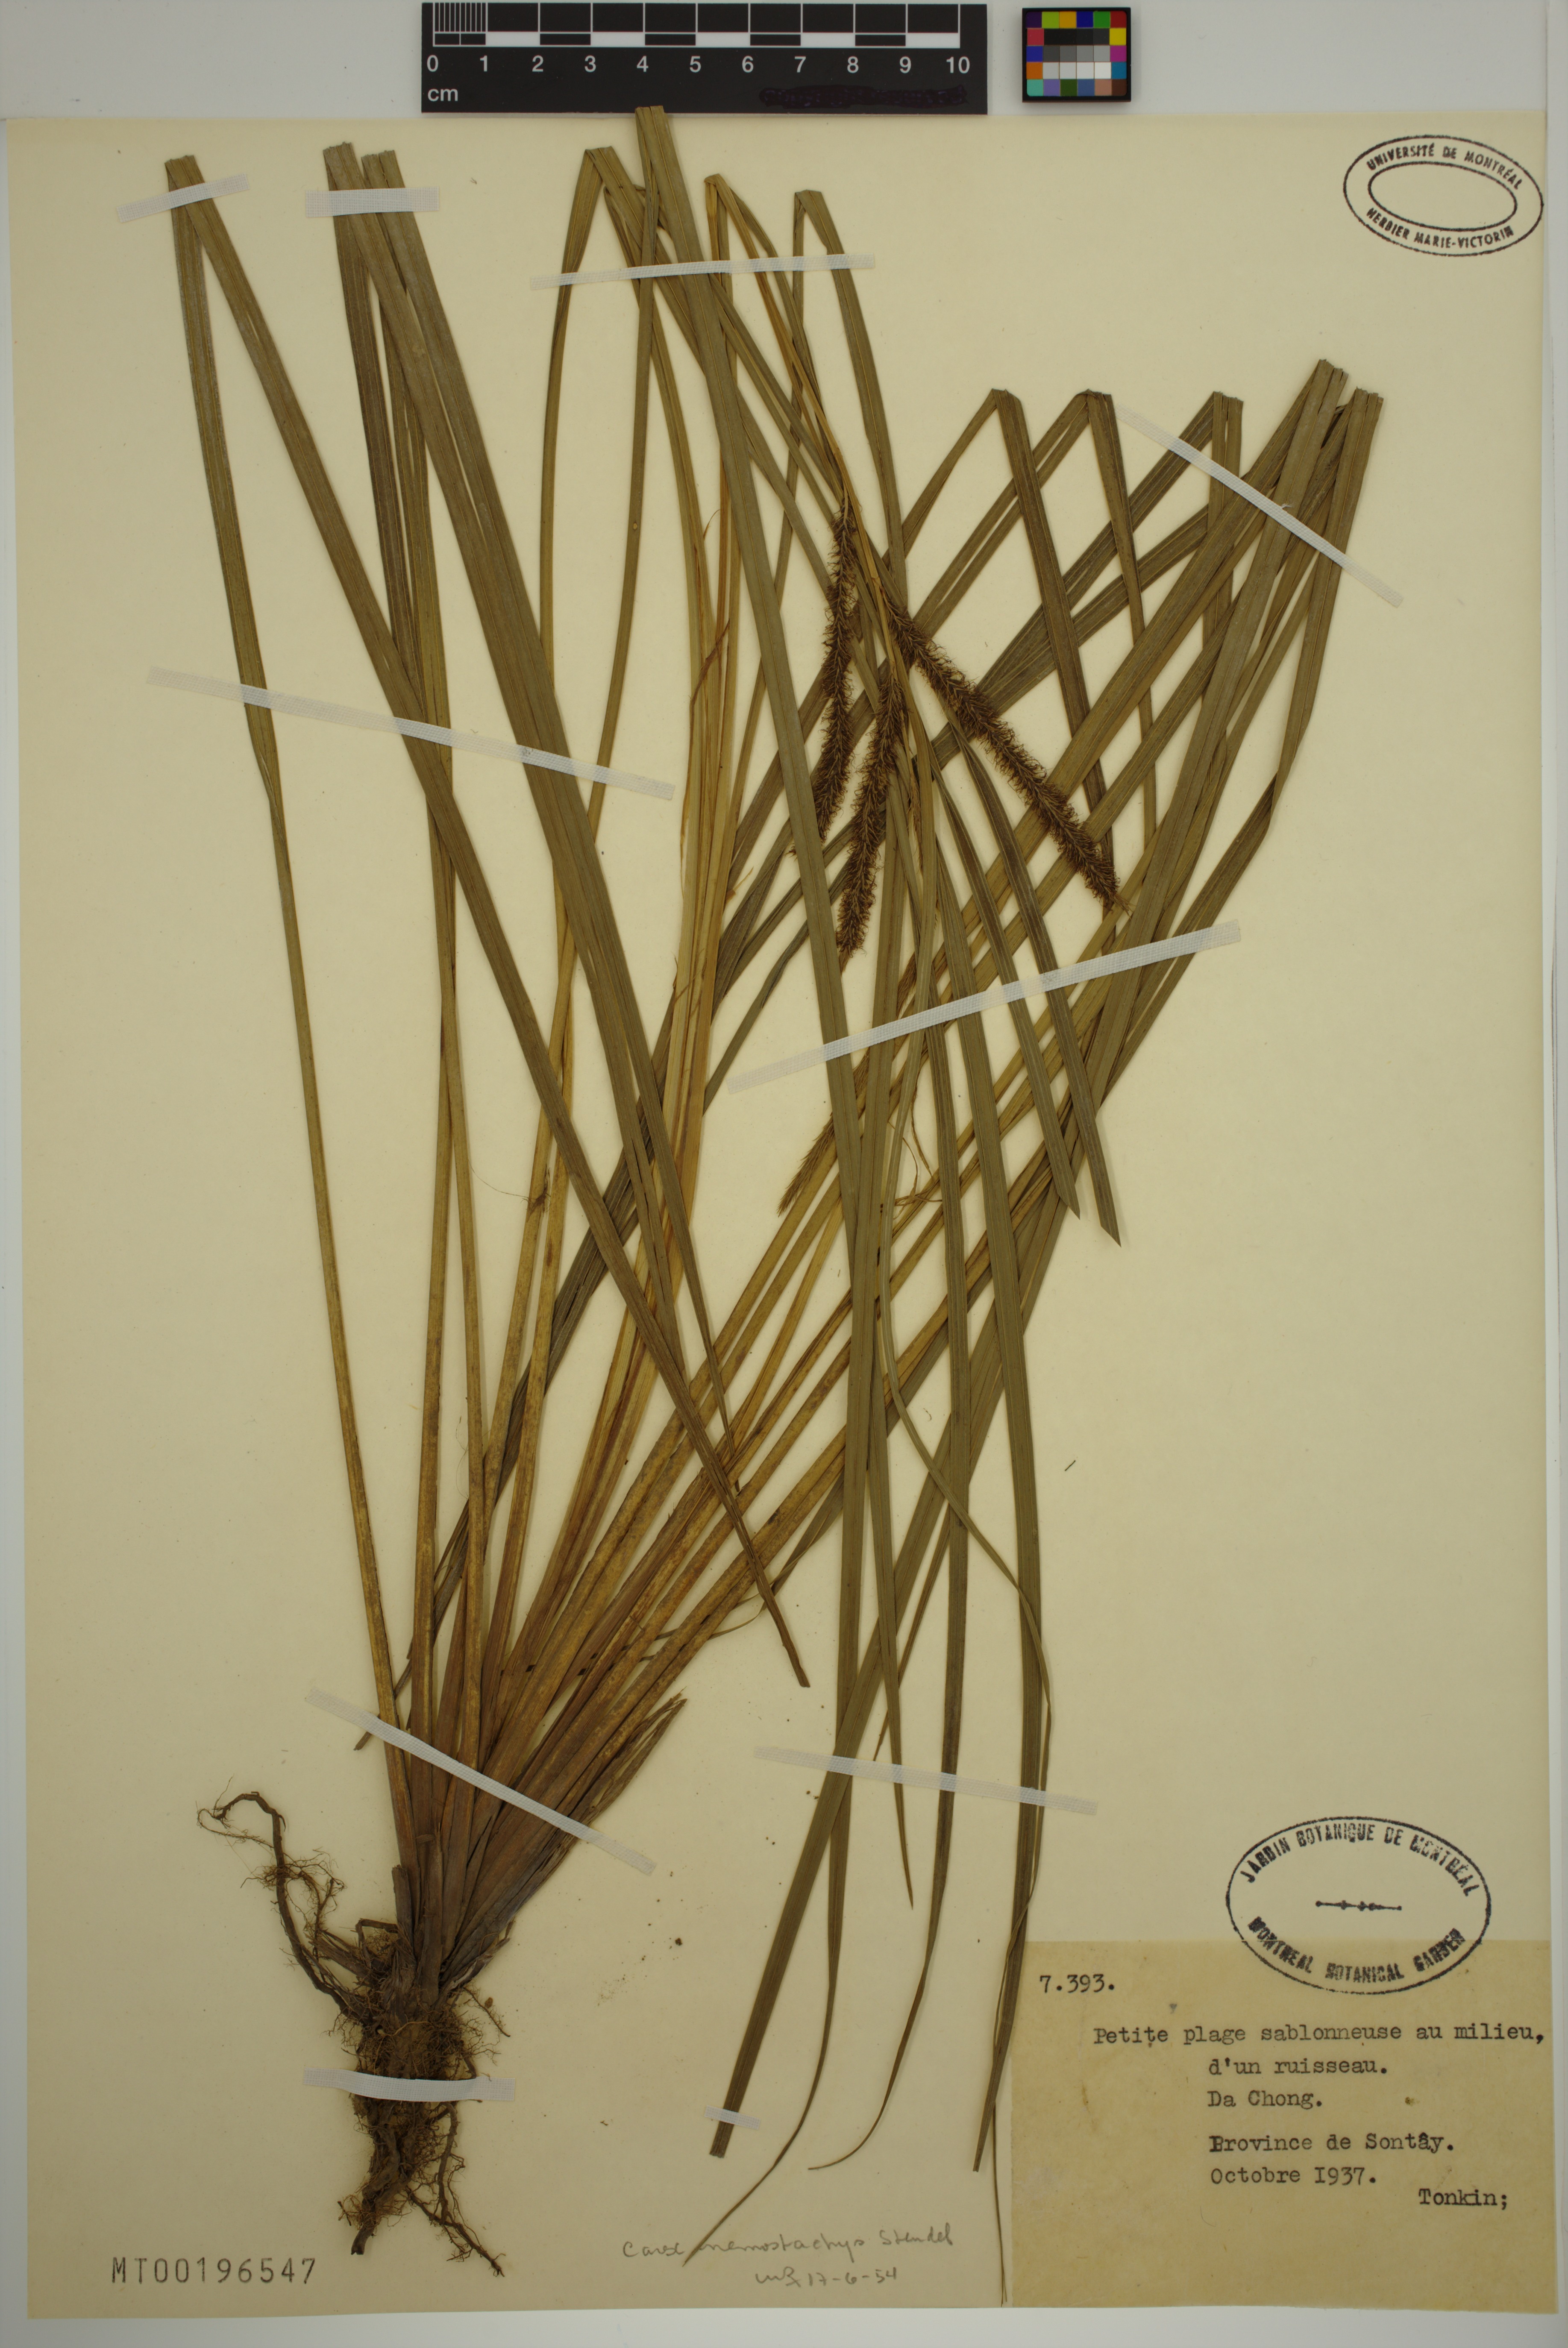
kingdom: Plantae
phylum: Tracheophyta
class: Liliopsida
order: Poales
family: Cyperaceae
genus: Carex
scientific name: Carex nemostachys
